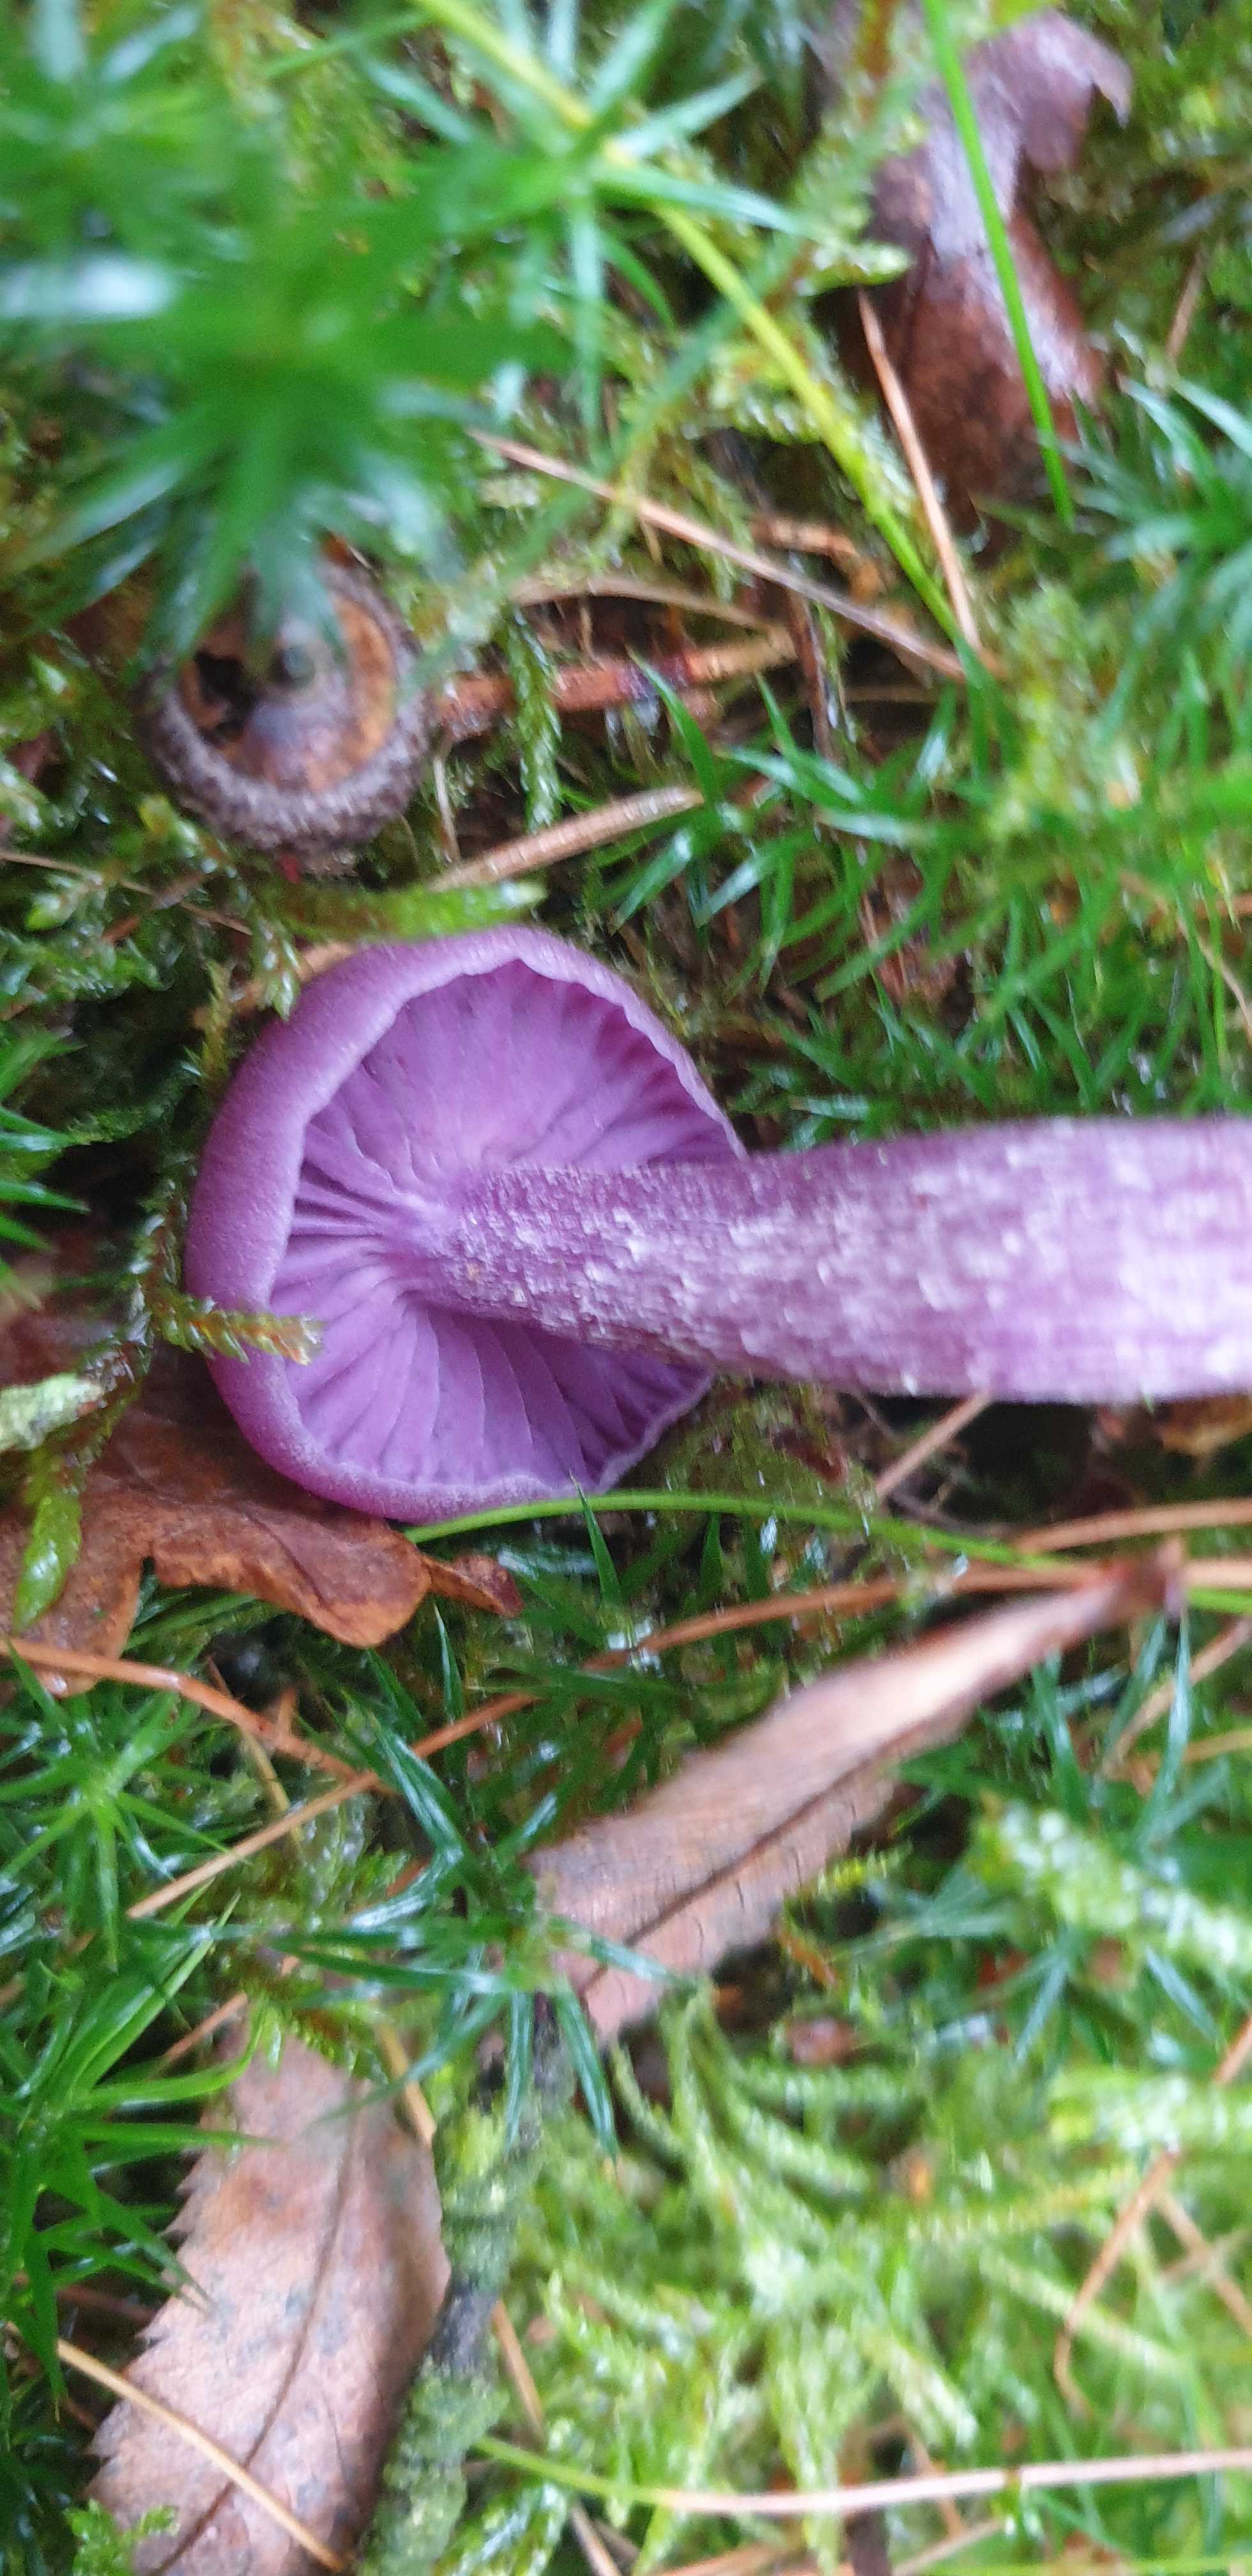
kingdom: Fungi
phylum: Basidiomycota
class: Agaricomycetes
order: Agaricales
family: Hydnangiaceae
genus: Laccaria
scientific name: Laccaria amethystina
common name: violet ametysthat
